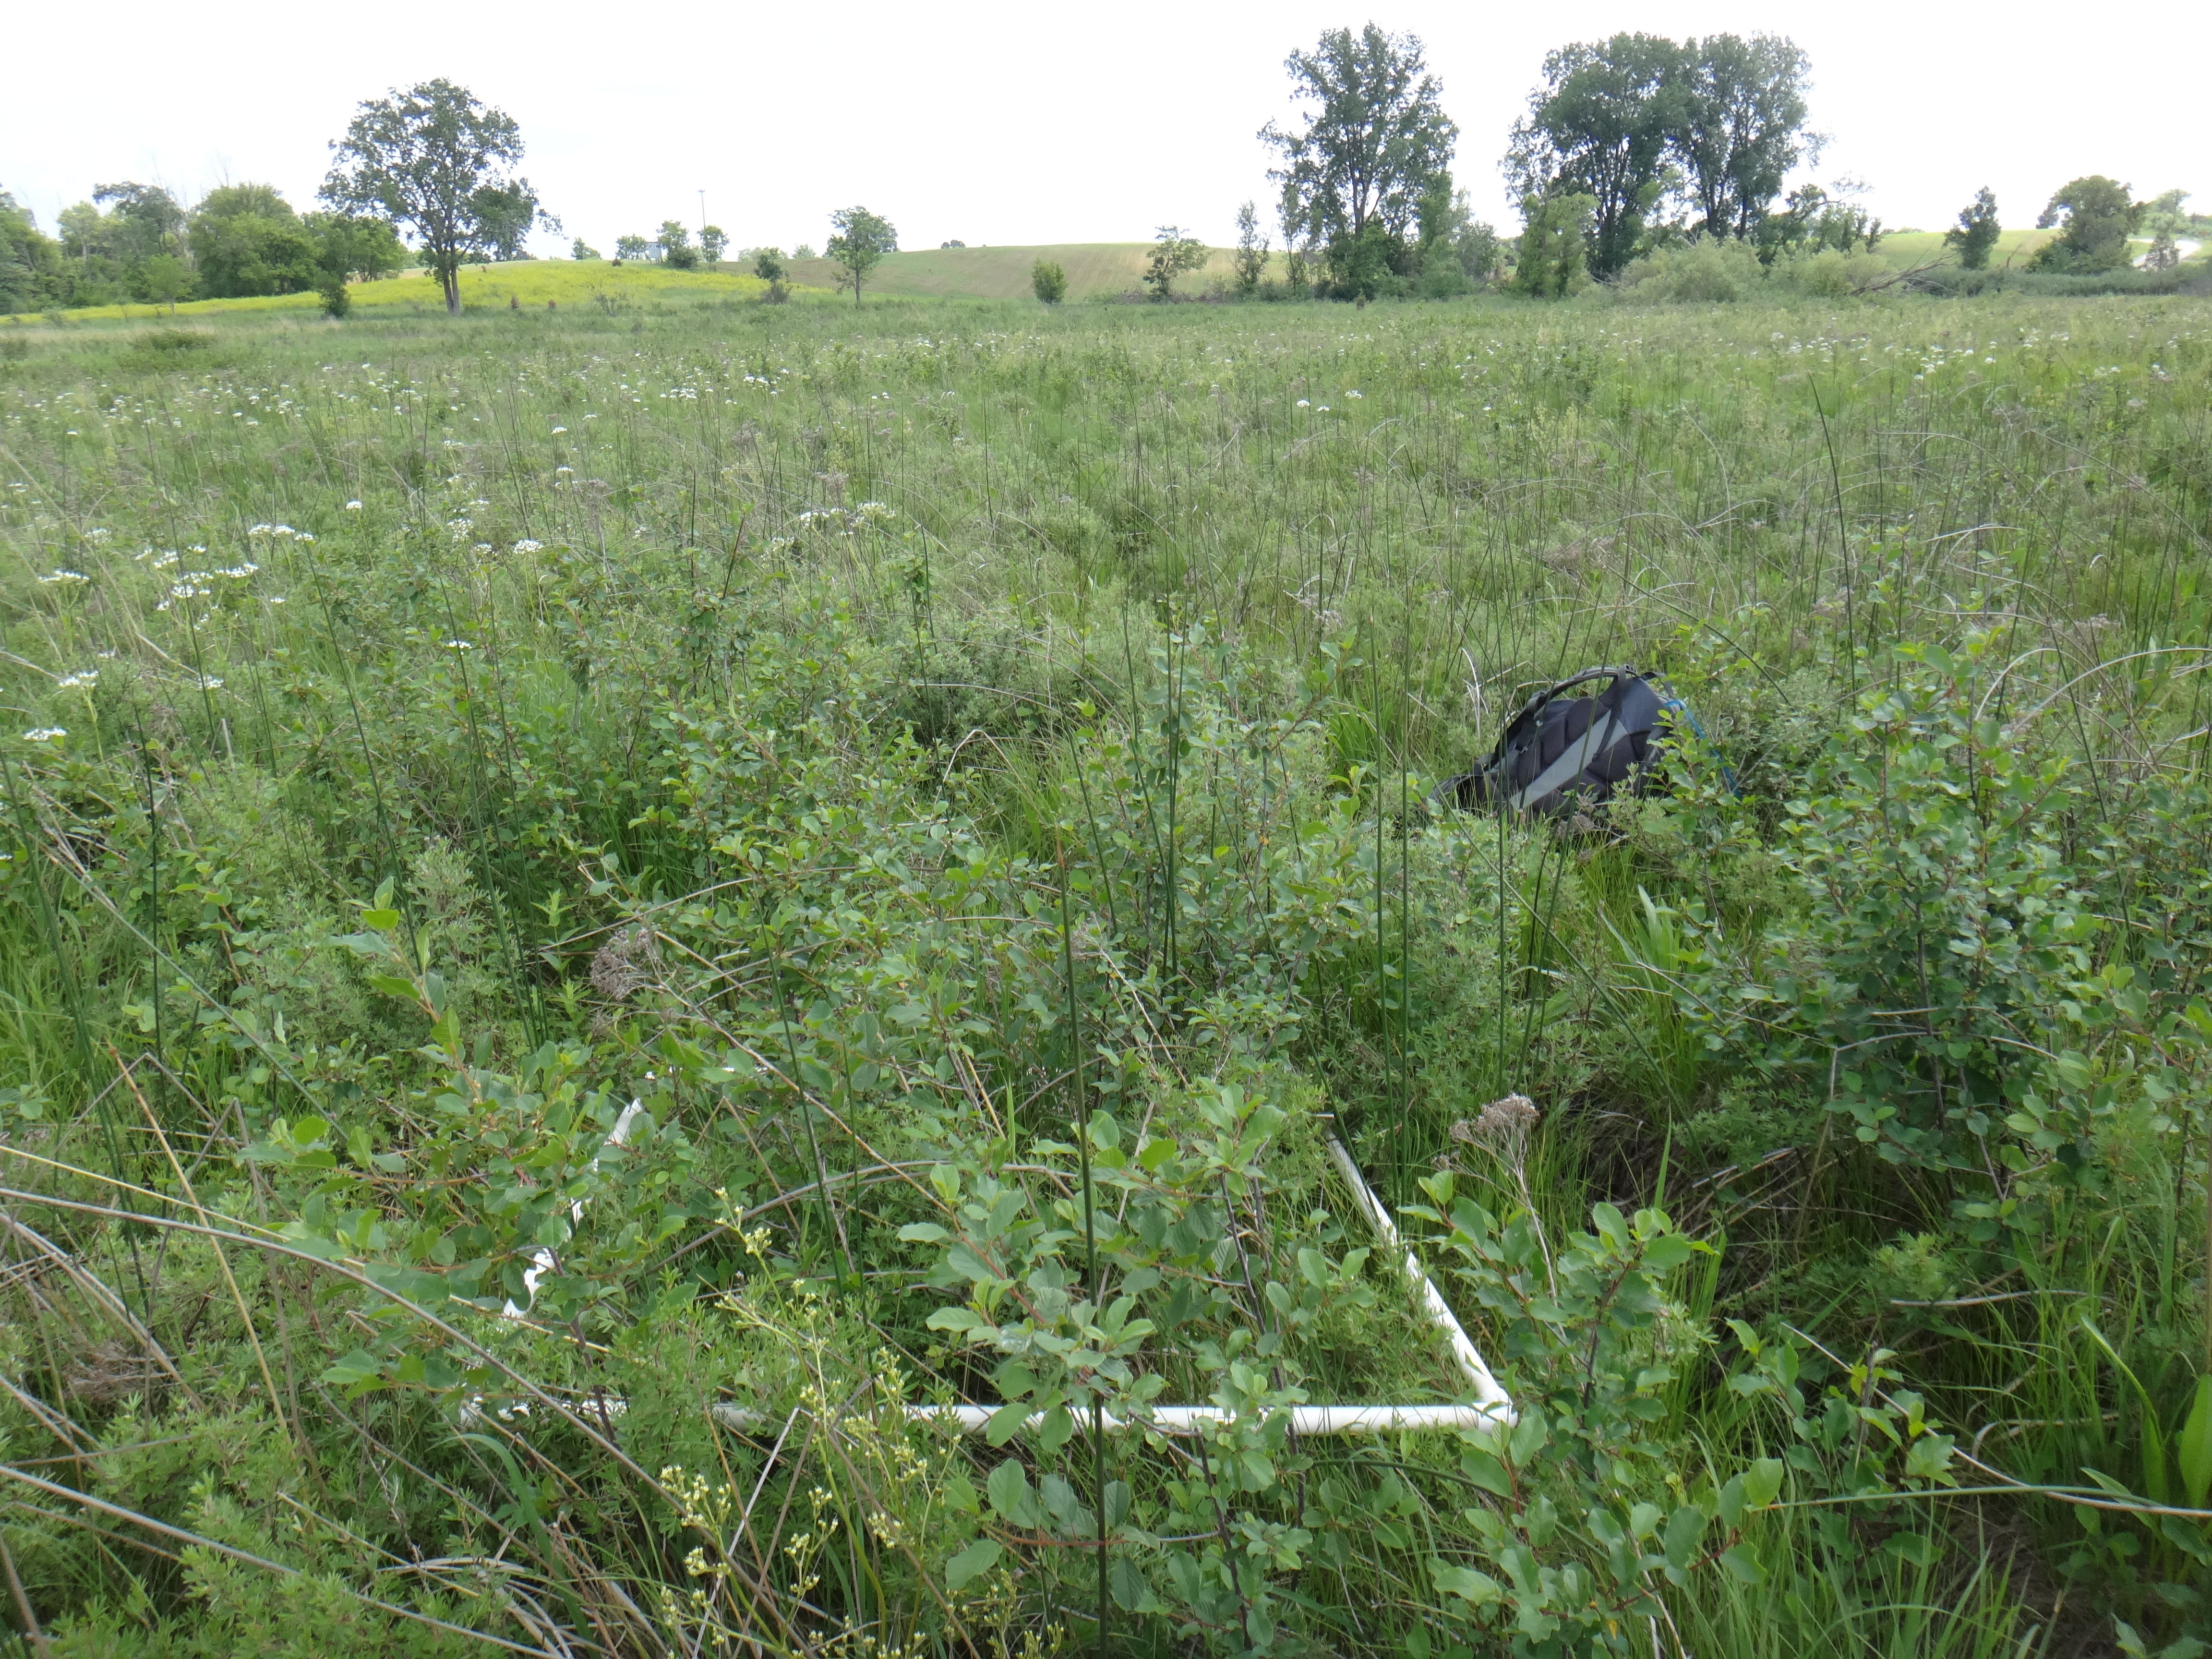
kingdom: Plantae
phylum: Tracheophyta
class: Liliopsida
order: Poales
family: Cyperaceae
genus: Carex
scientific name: Carex diandra
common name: Lesser tussock-sedge
